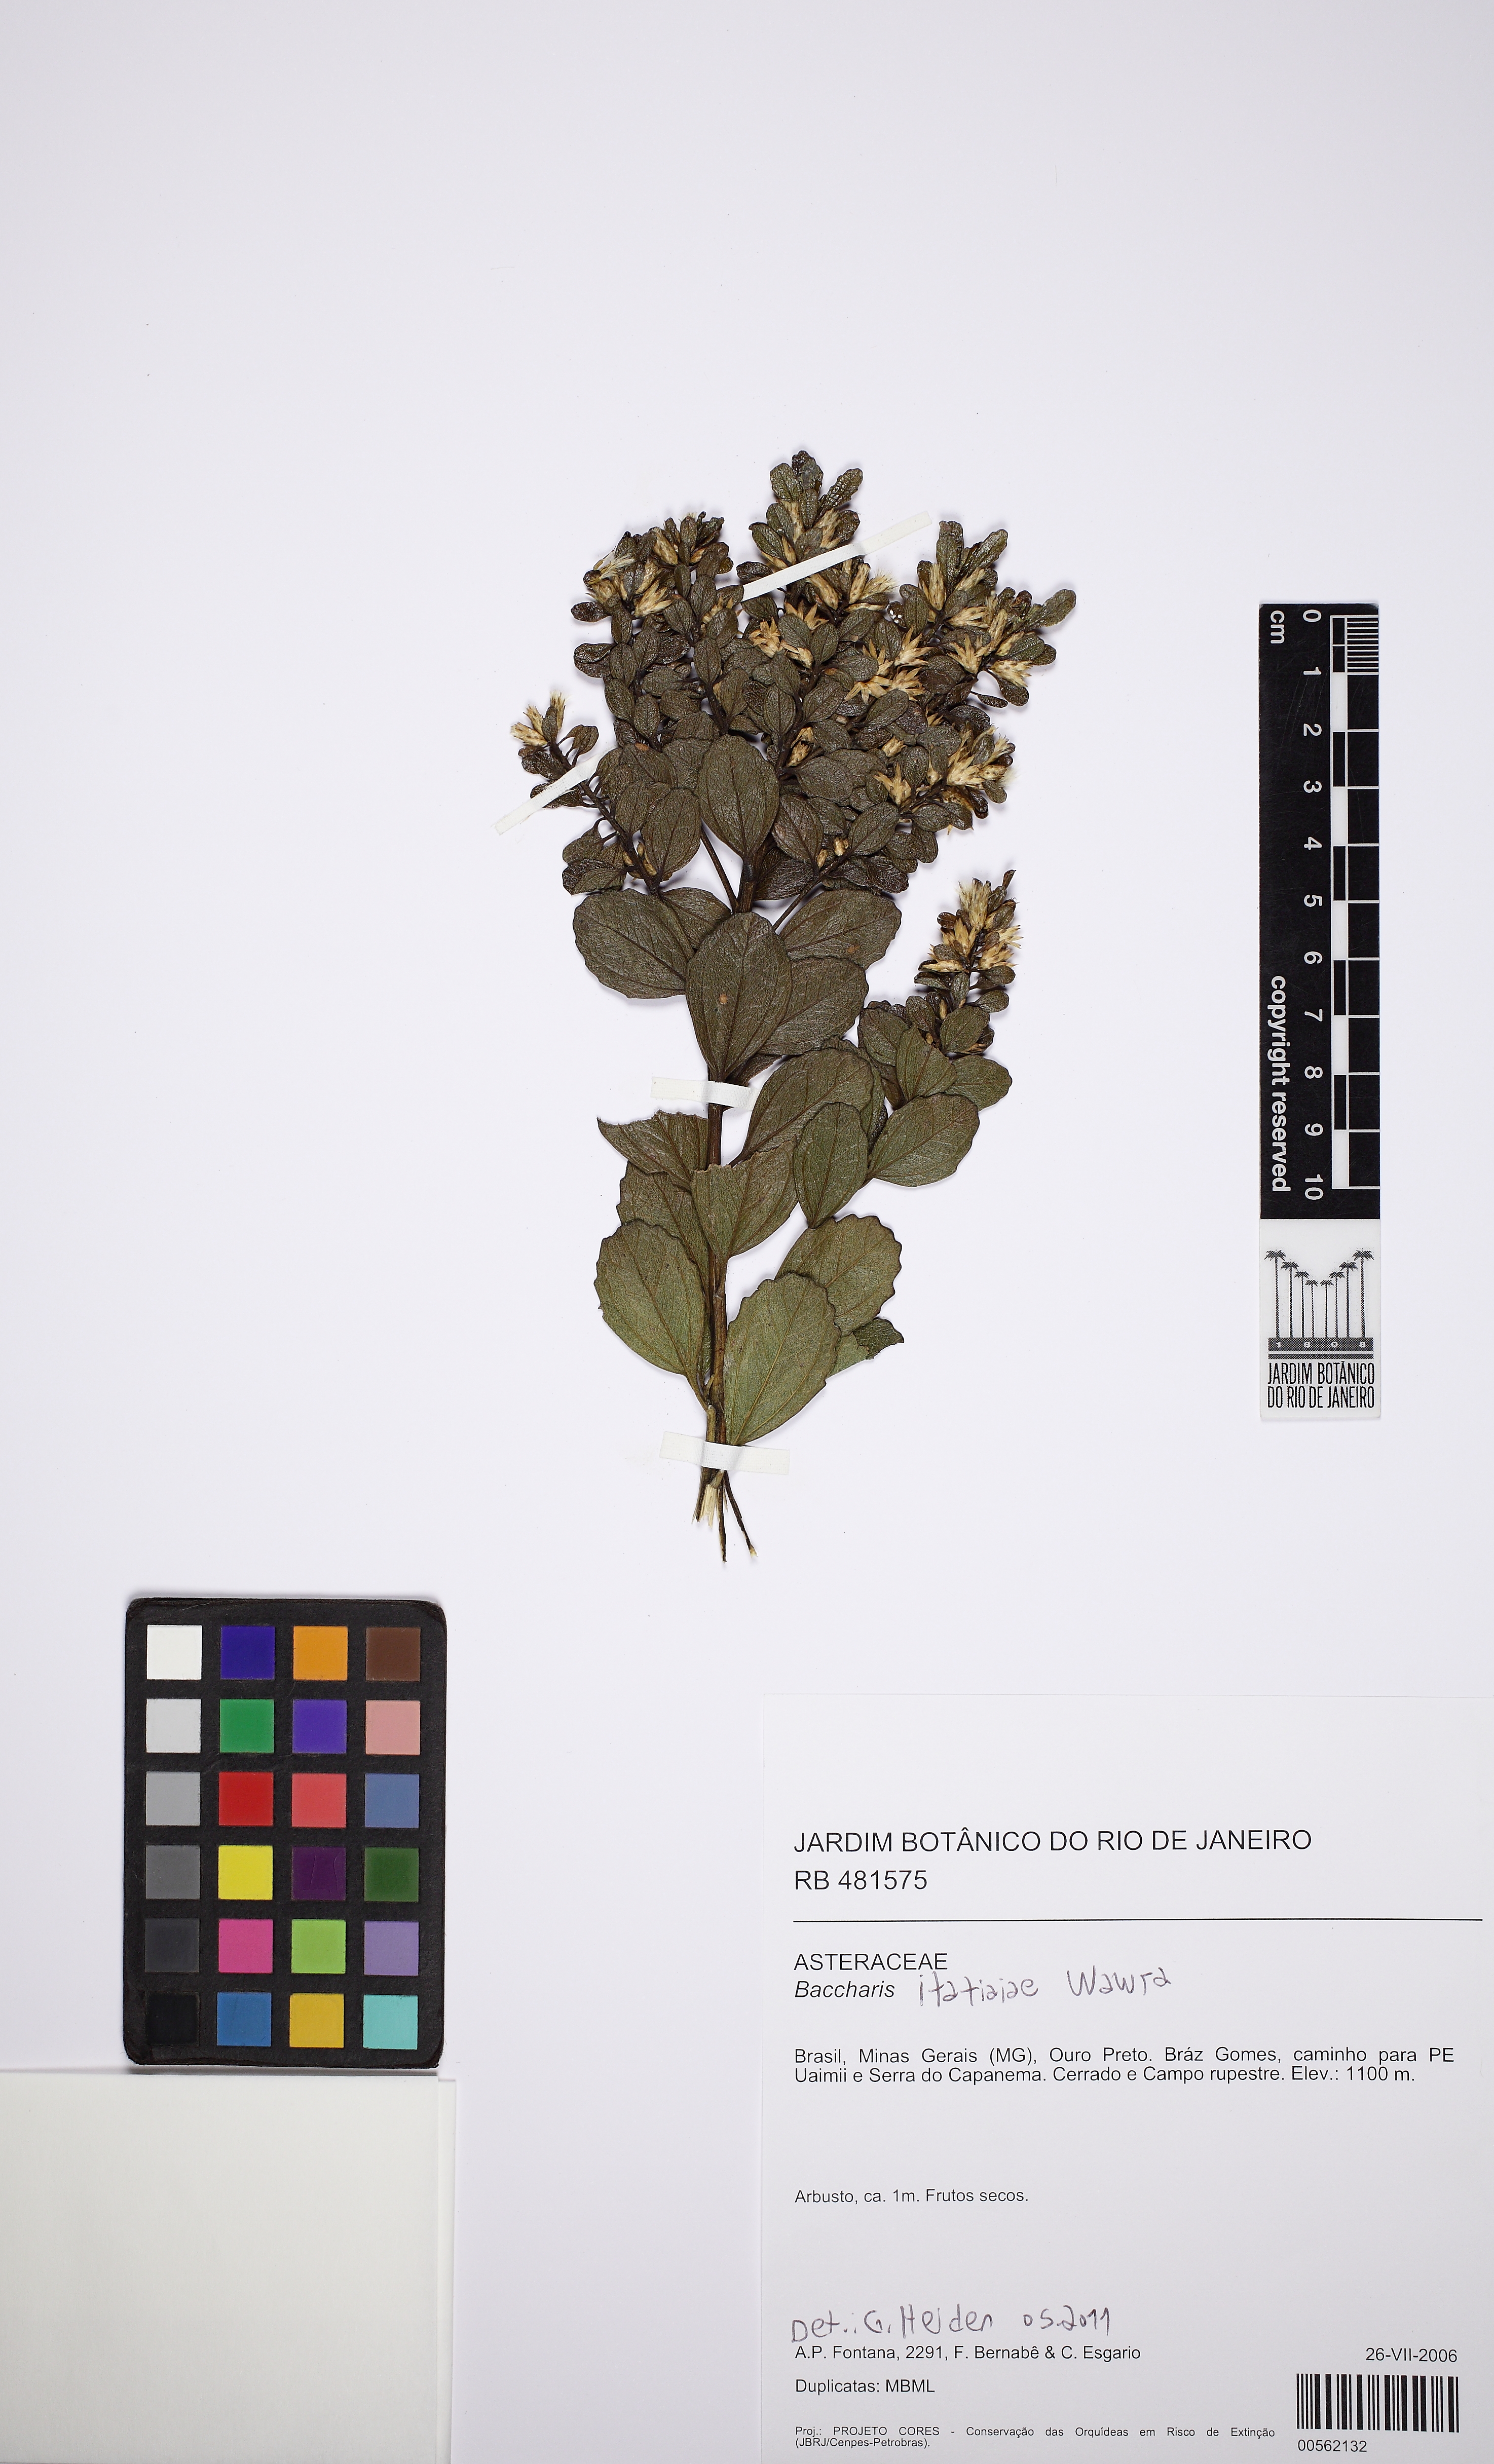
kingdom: Plantae
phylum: Tracheophyta
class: Magnoliopsida
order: Asterales
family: Asteraceae
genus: Baccharis
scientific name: Baccharis itatiaiae
